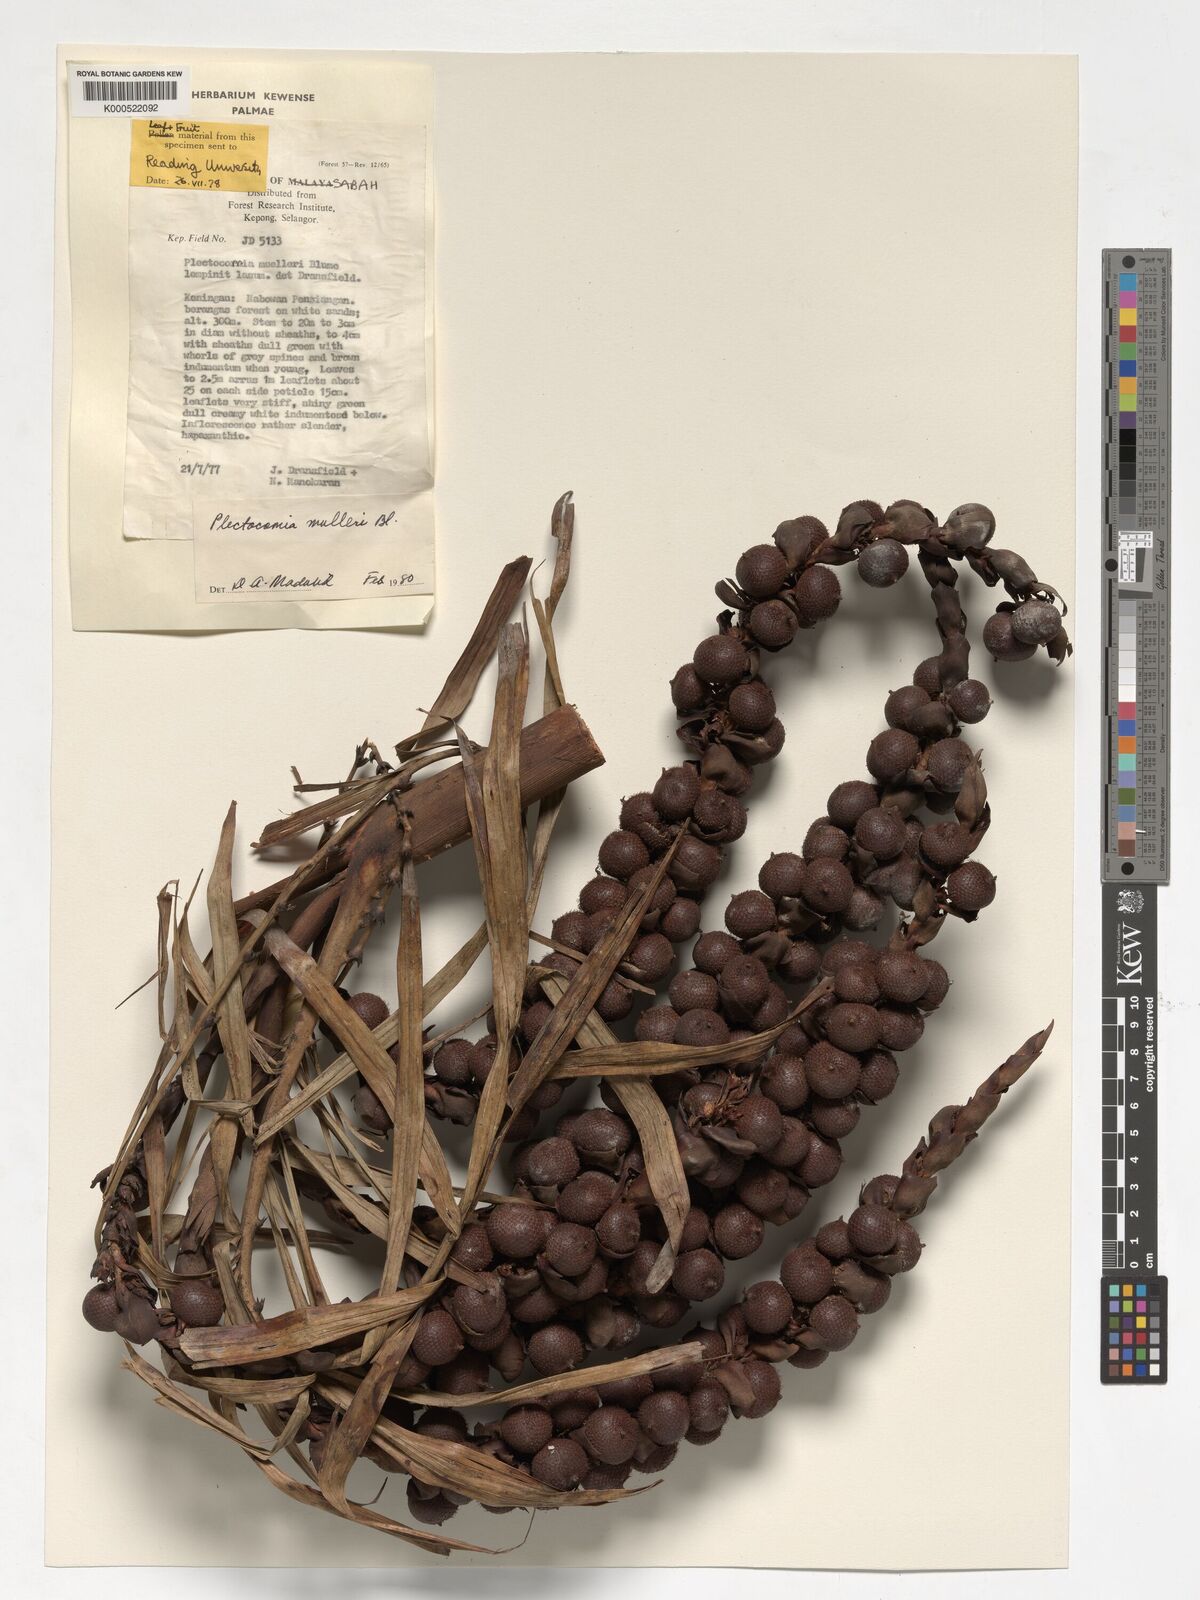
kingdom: Plantae
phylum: Tracheophyta
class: Liliopsida
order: Arecales
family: Arecaceae
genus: Plectocomia
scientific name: Plectocomia mulleri
